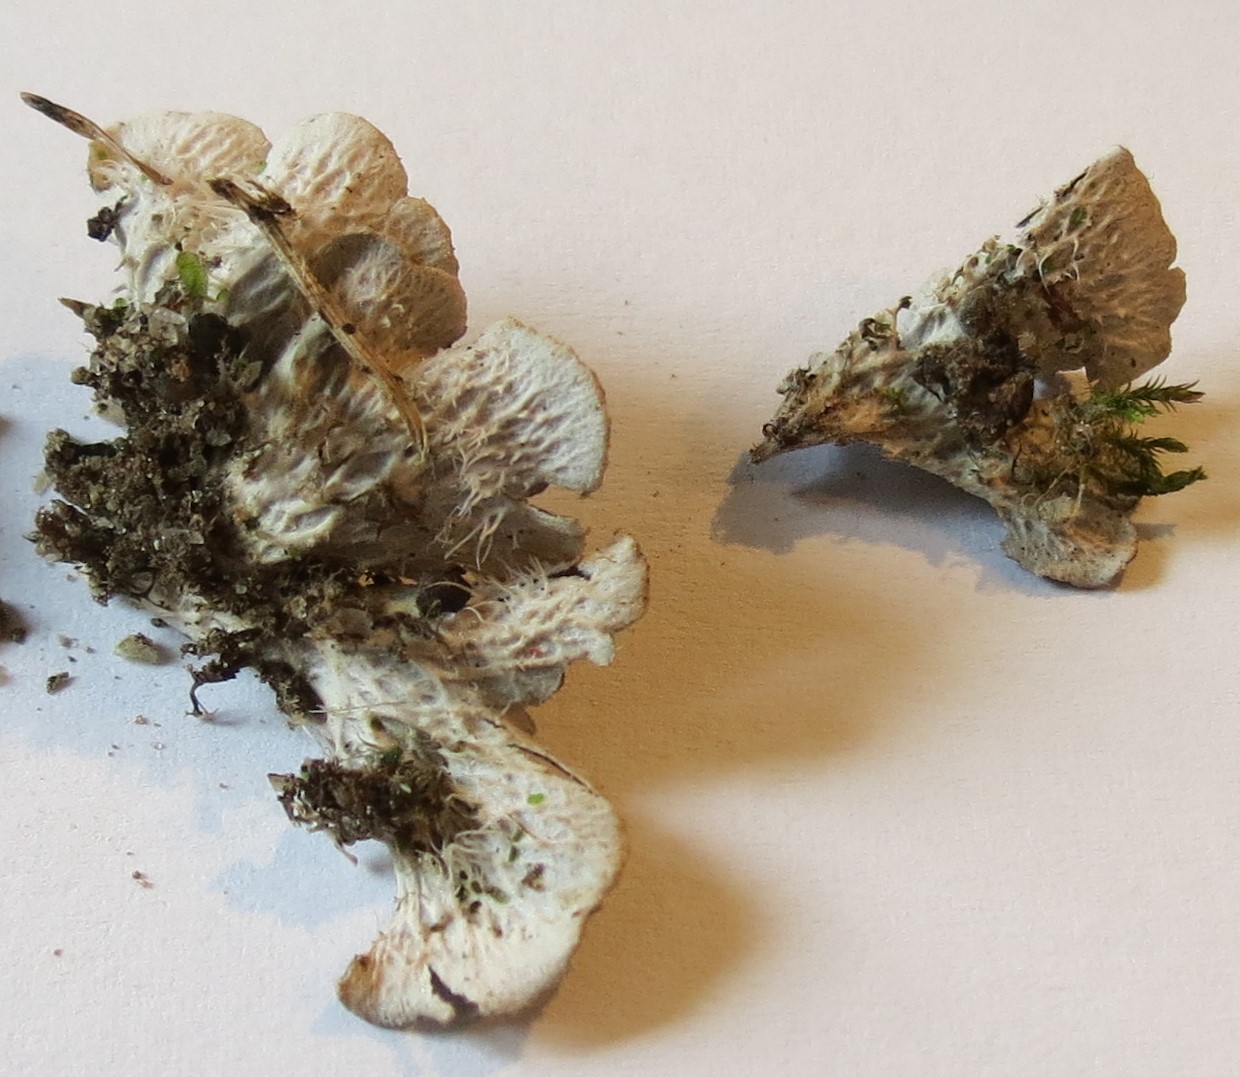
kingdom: Fungi
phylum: Ascomycota
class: Lecanoromycetes
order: Peltigerales
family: Peltigeraceae
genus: Peltigera
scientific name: Peltigera
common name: skjoldlav
